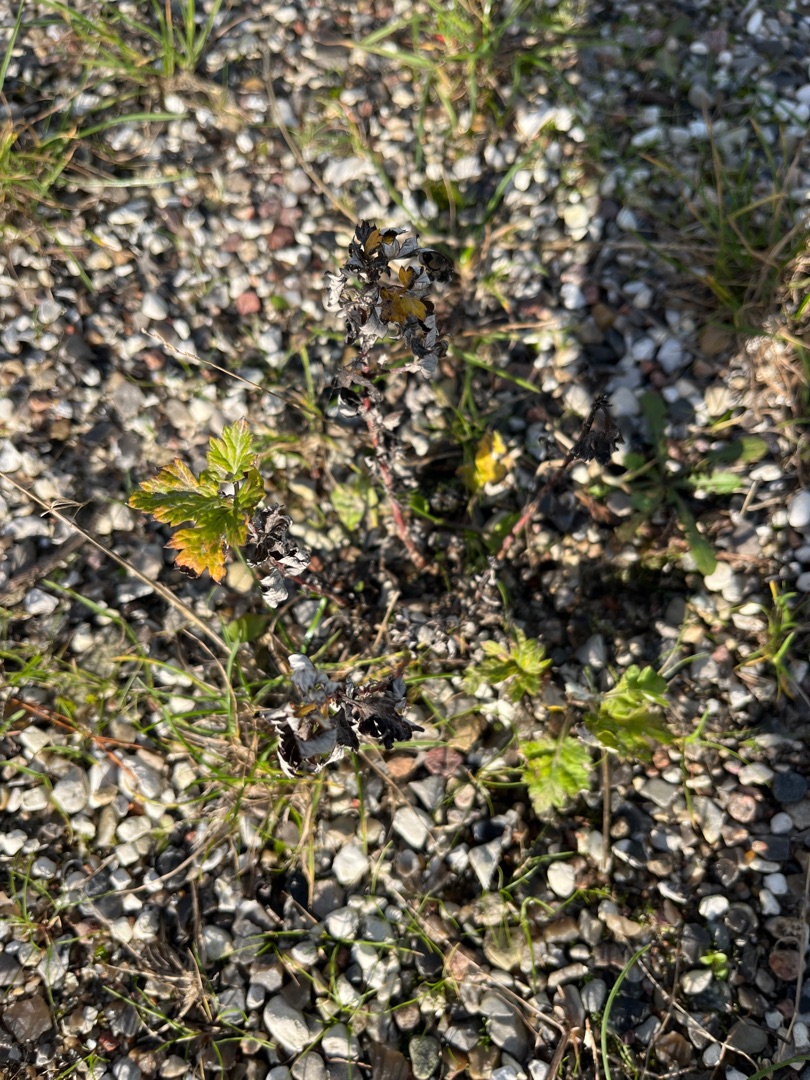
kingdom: Plantae
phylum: Tracheophyta
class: Magnoliopsida
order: Asterales
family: Asteraceae
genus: Artemisia
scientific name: Artemisia vulgaris
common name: Grå-bynke
